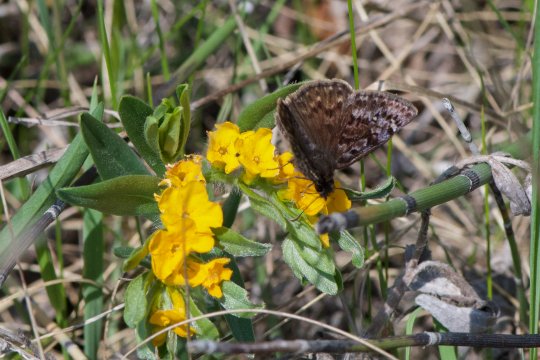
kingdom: Animalia
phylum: Arthropoda
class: Insecta
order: Lepidoptera
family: Hesperiidae
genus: Erynnis
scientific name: Erynnis martialis
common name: Mottled Duskywing
